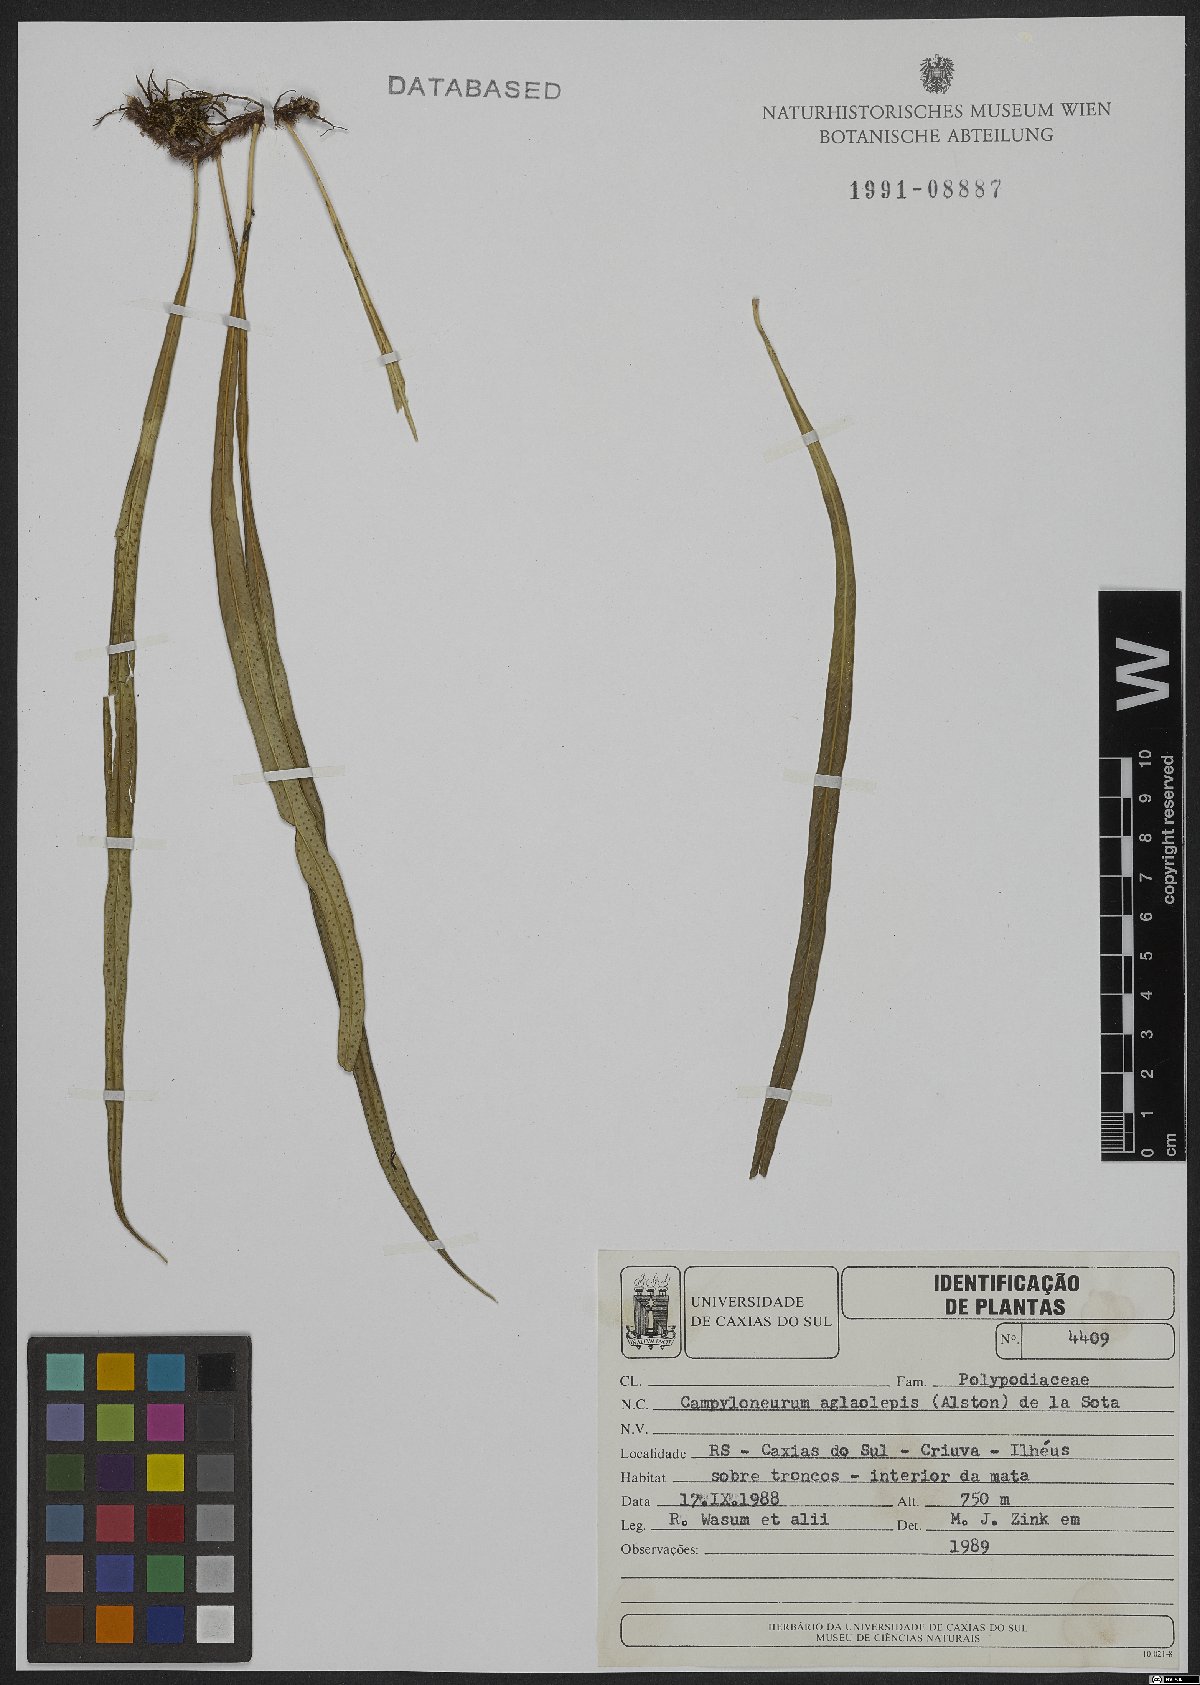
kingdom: Plantae
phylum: Tracheophyta
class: Polypodiopsida
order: Polypodiales
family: Polypodiaceae
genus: Campyloneurum
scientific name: Campyloneurum aglaolepis
